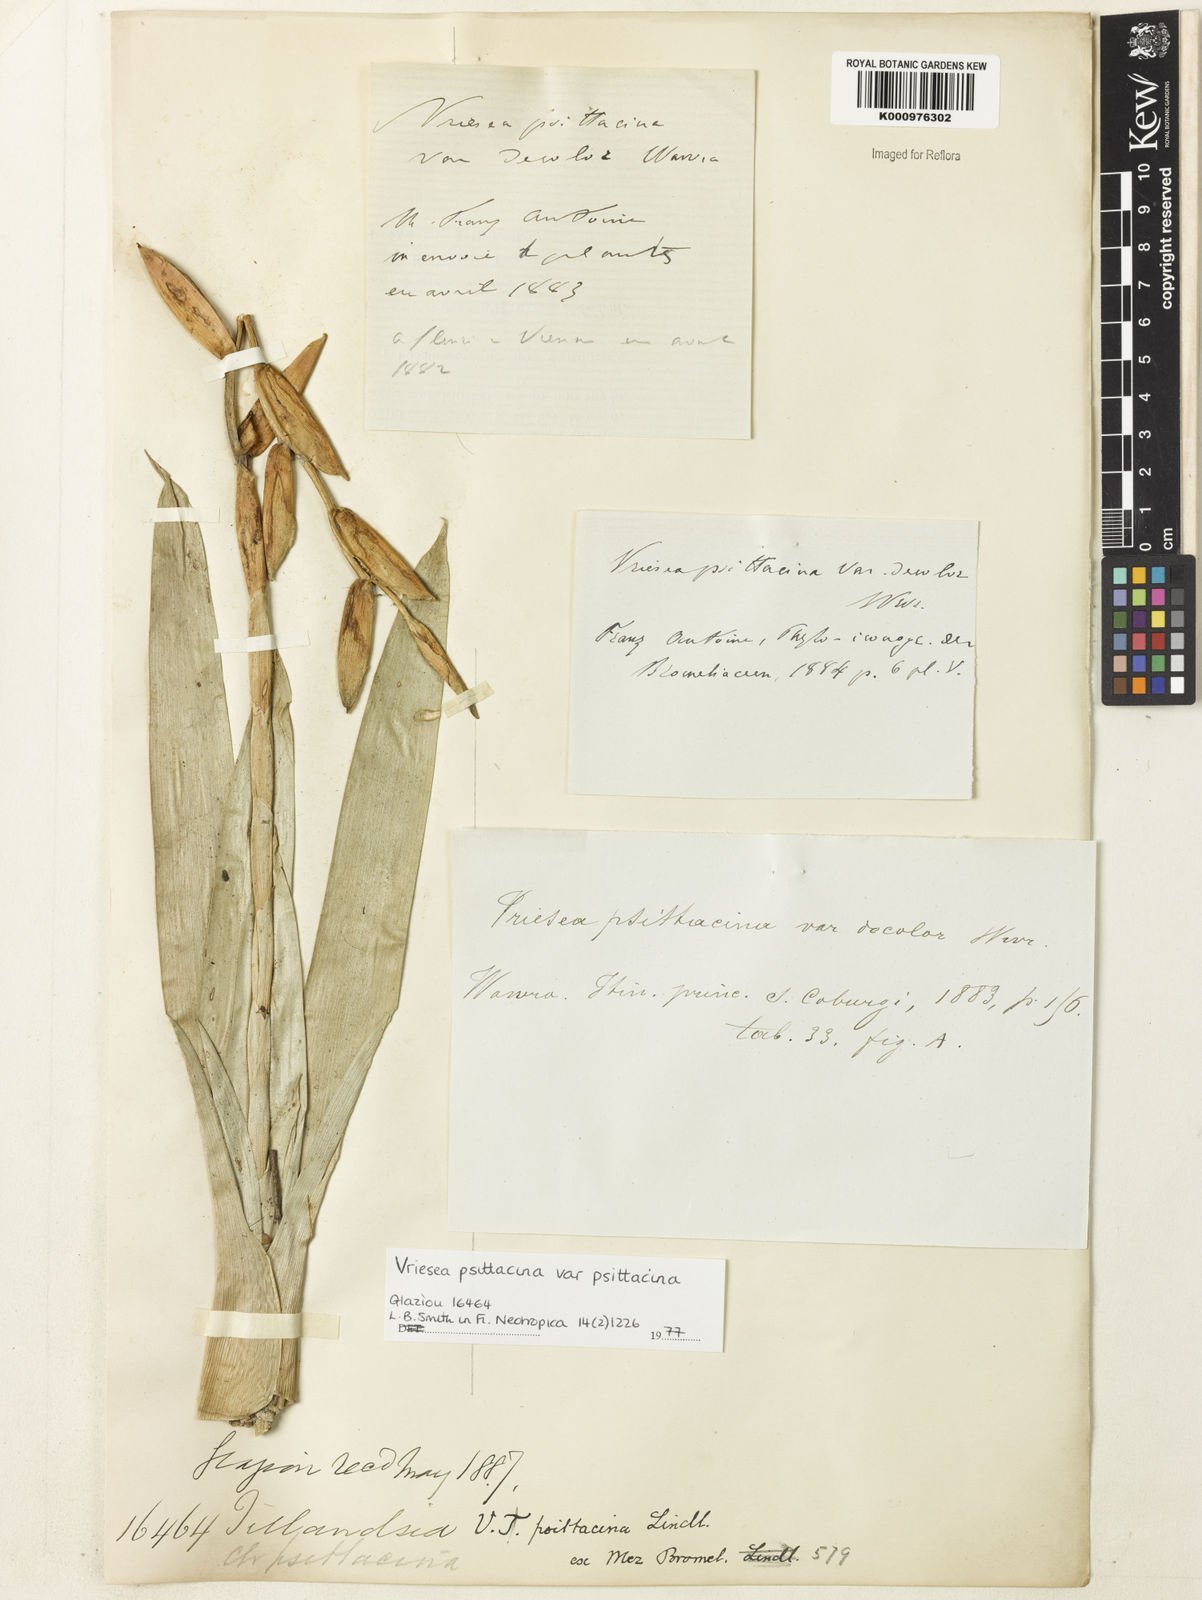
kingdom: Plantae
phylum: Tracheophyta
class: Liliopsida
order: Poales
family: Bromeliaceae
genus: Vriesea
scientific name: Vriesea psittacina
